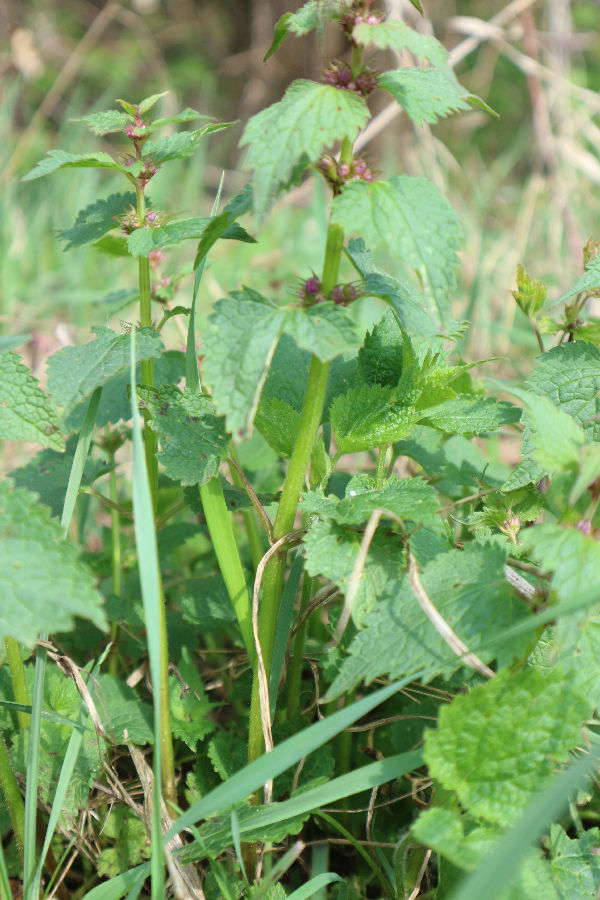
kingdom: Plantae
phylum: Tracheophyta
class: Magnoliopsida
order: Lamiales
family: Lamiaceae
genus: Lamium
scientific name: Lamium purpureum
